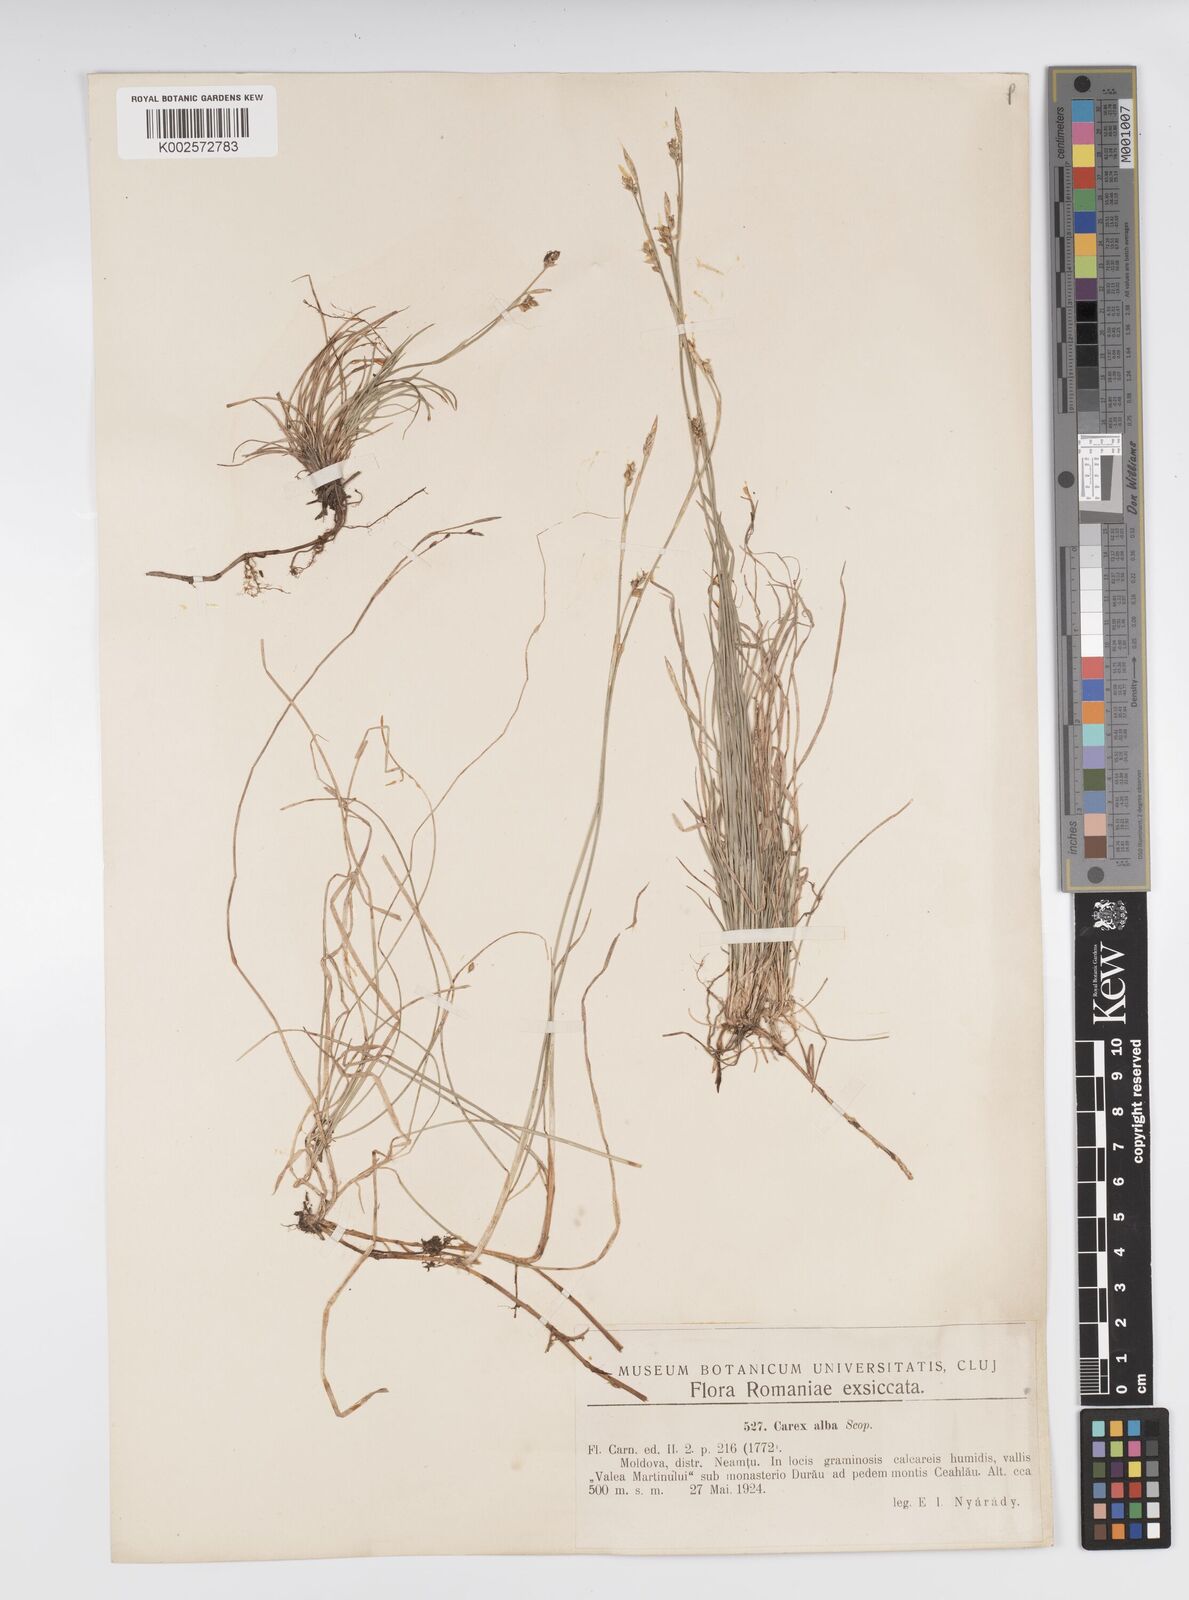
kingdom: Plantae
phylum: Tracheophyta
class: Liliopsida
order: Poales
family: Cyperaceae
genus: Carex
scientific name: Carex alba
